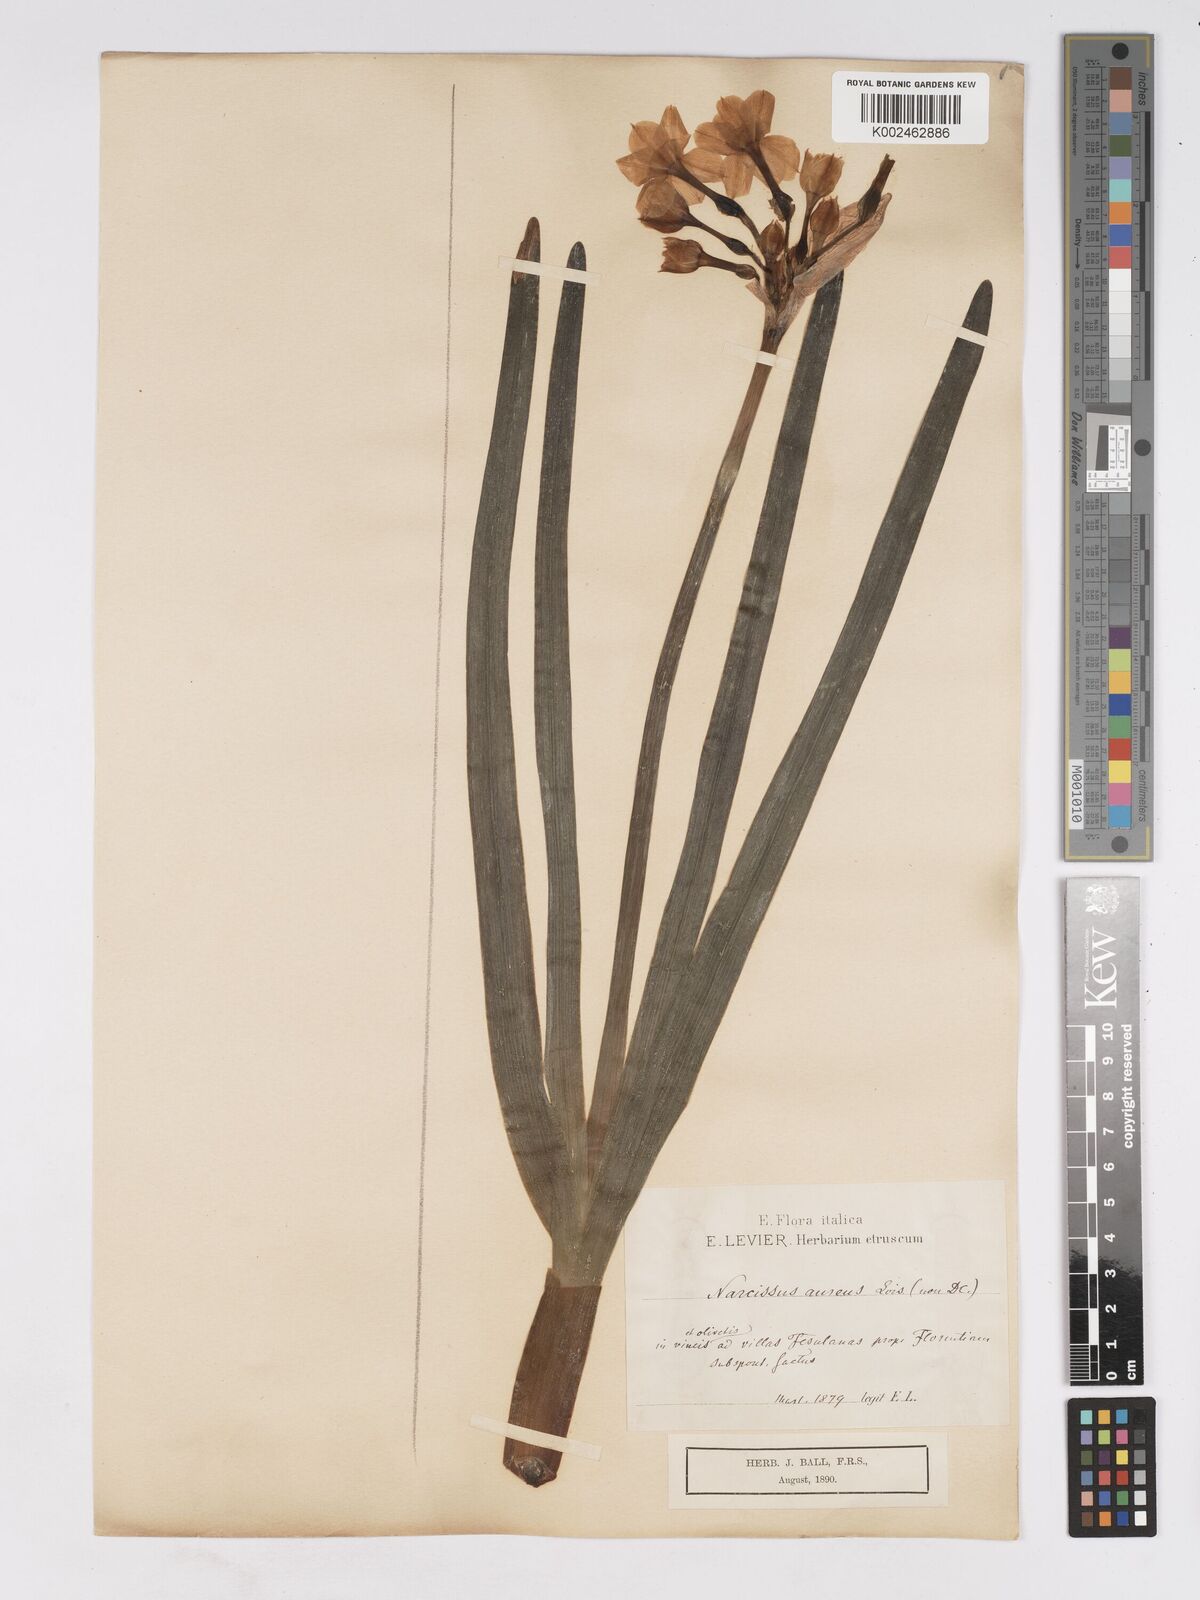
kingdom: Plantae
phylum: Tracheophyta
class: Liliopsida
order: Asparagales
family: Amaryllidaceae
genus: Narcissus
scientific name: Narcissus
